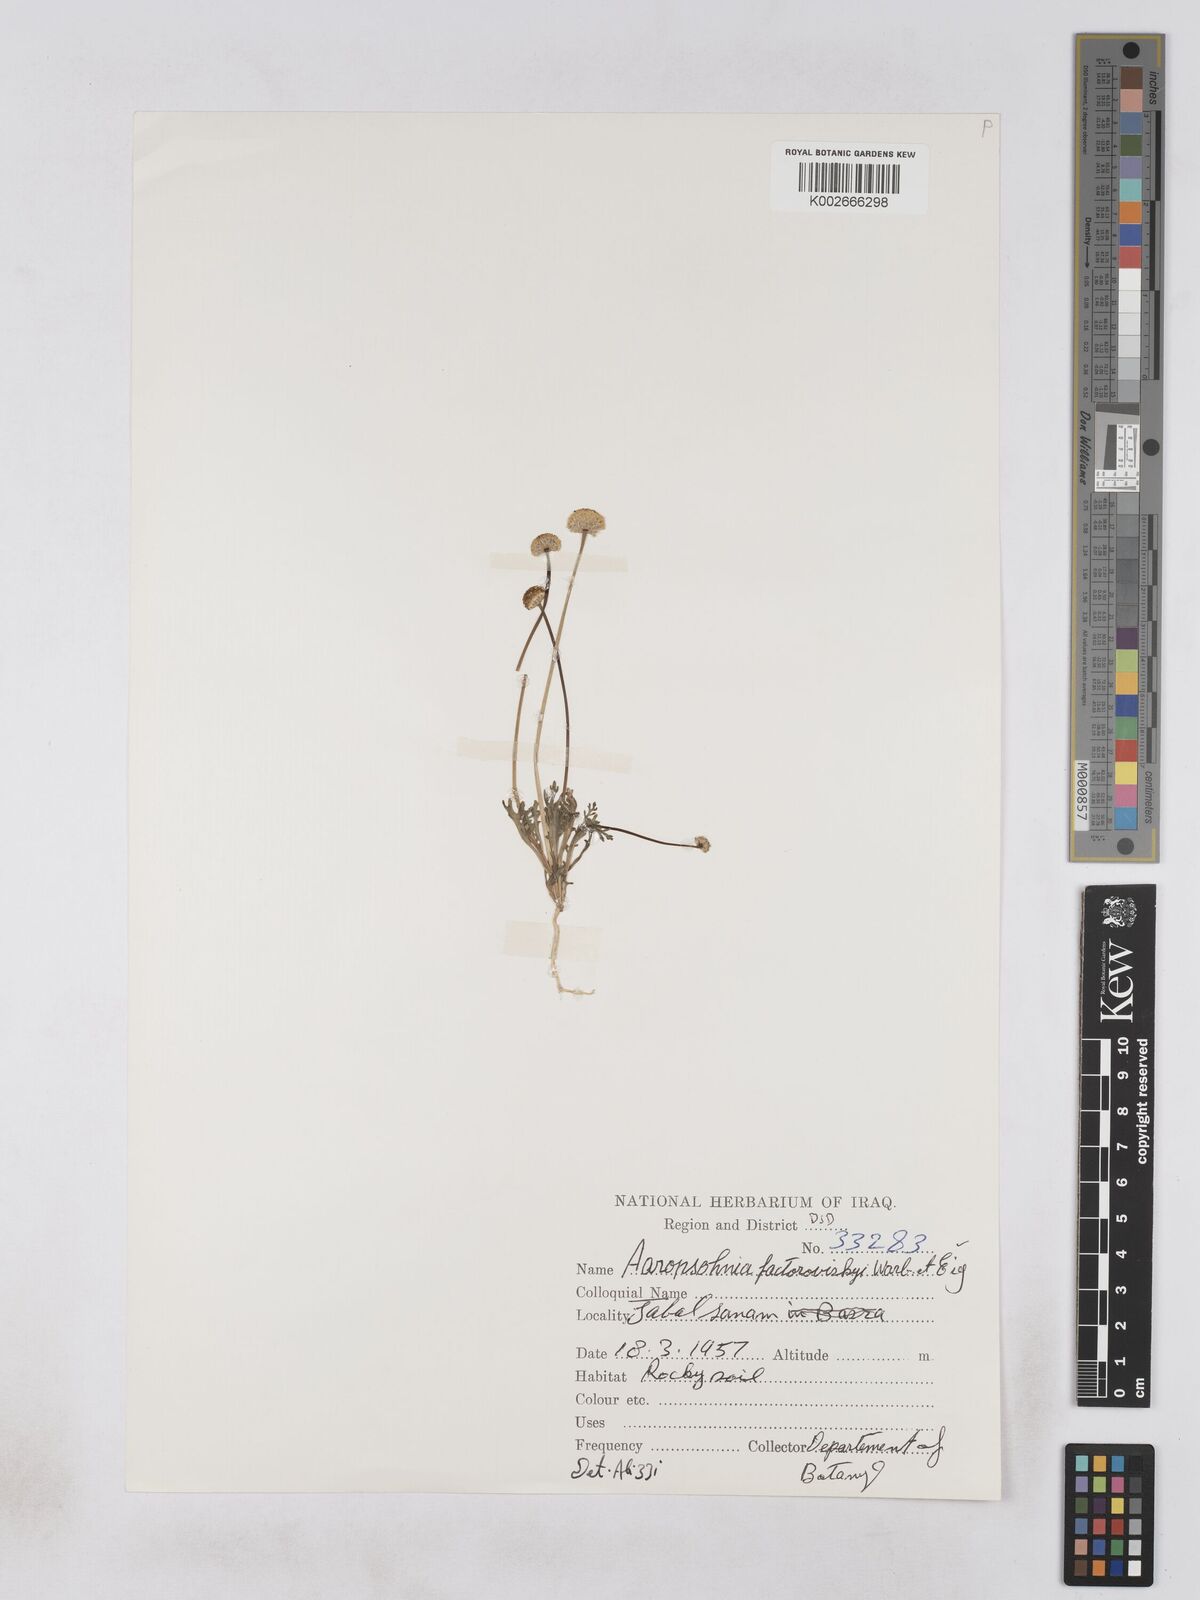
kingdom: Plantae
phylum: Tracheophyta
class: Magnoliopsida
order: Asterales
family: Asteraceae
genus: Otoglyphis
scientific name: Otoglyphis factorovskyi
